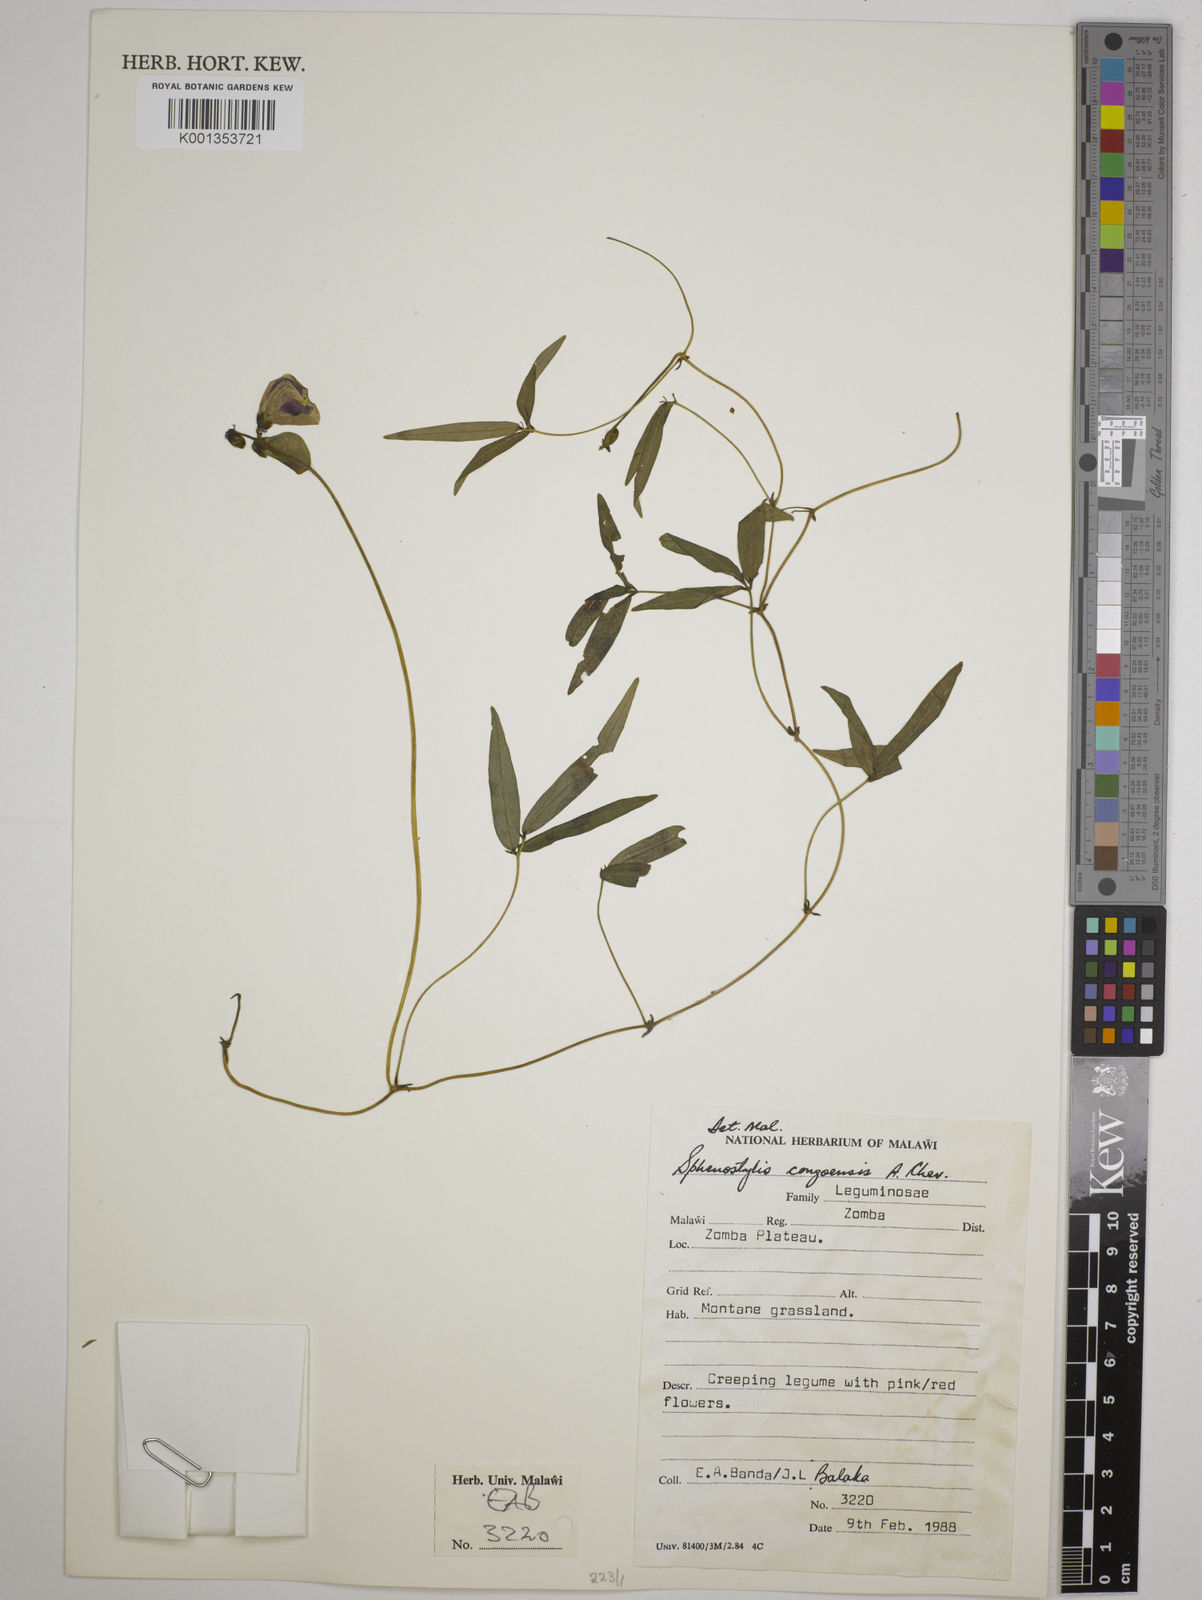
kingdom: Plantae
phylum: Tracheophyta
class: Magnoliopsida
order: Fabales
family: Fabaceae
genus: Sphenostylis
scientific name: Sphenostylis stenocarpa
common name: Yam-pea
